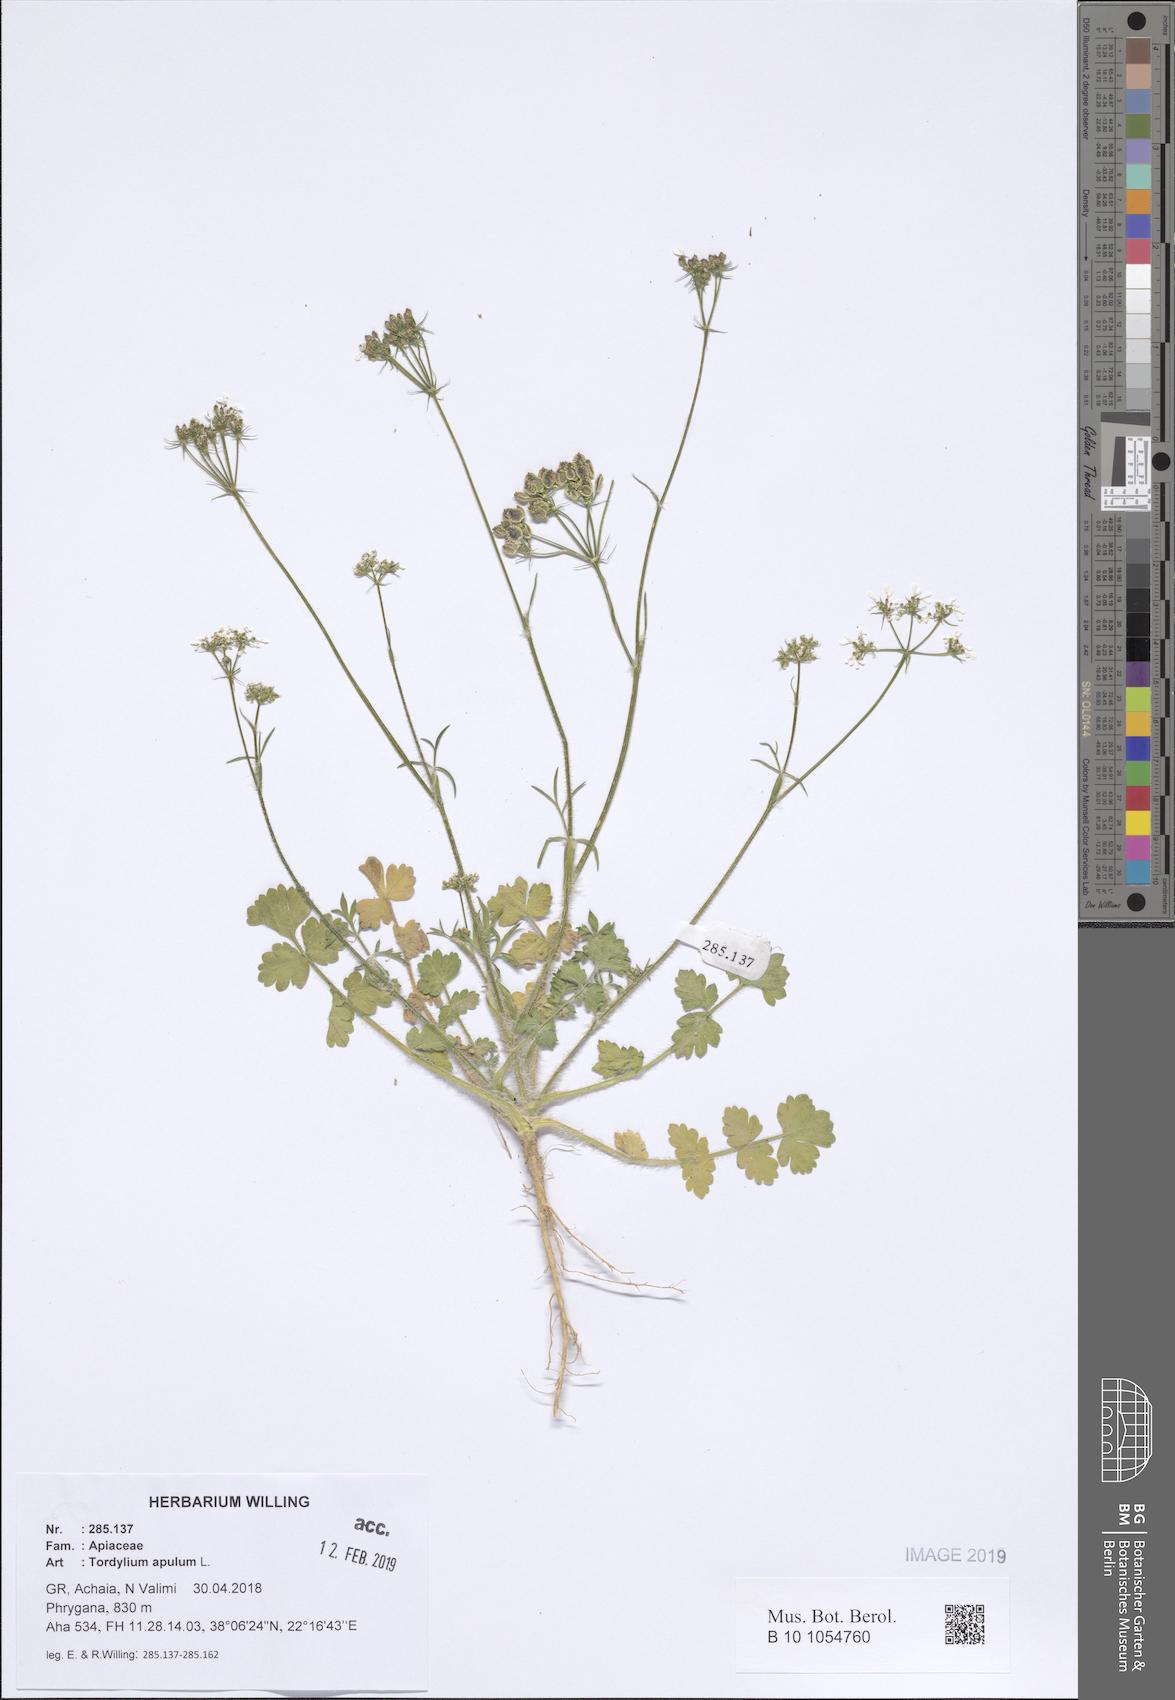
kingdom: Plantae
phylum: Tracheophyta
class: Magnoliopsida
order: Apiales
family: Apiaceae
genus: Tordylium
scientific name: Tordylium apulum
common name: Mediterranean hartwort
